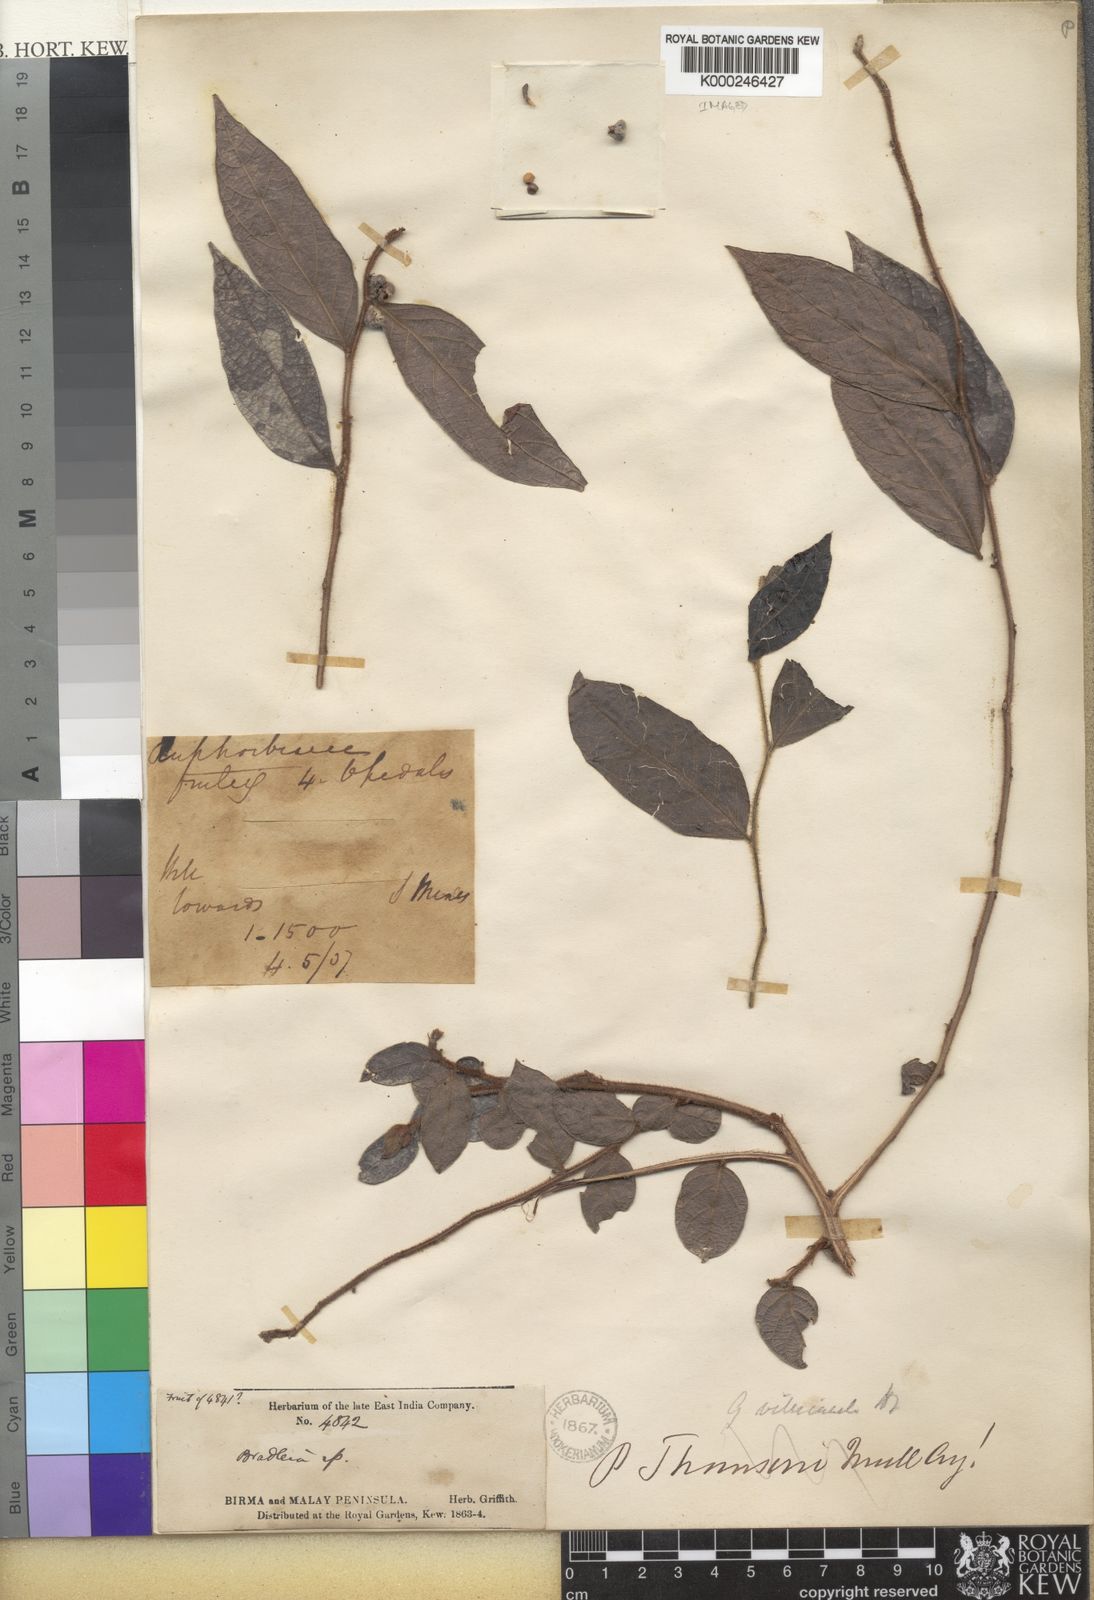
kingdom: Plantae
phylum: Tracheophyta
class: Magnoliopsida
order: Malpighiales
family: Phyllanthaceae
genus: Glochidion
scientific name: Glochidion eriocarpum
